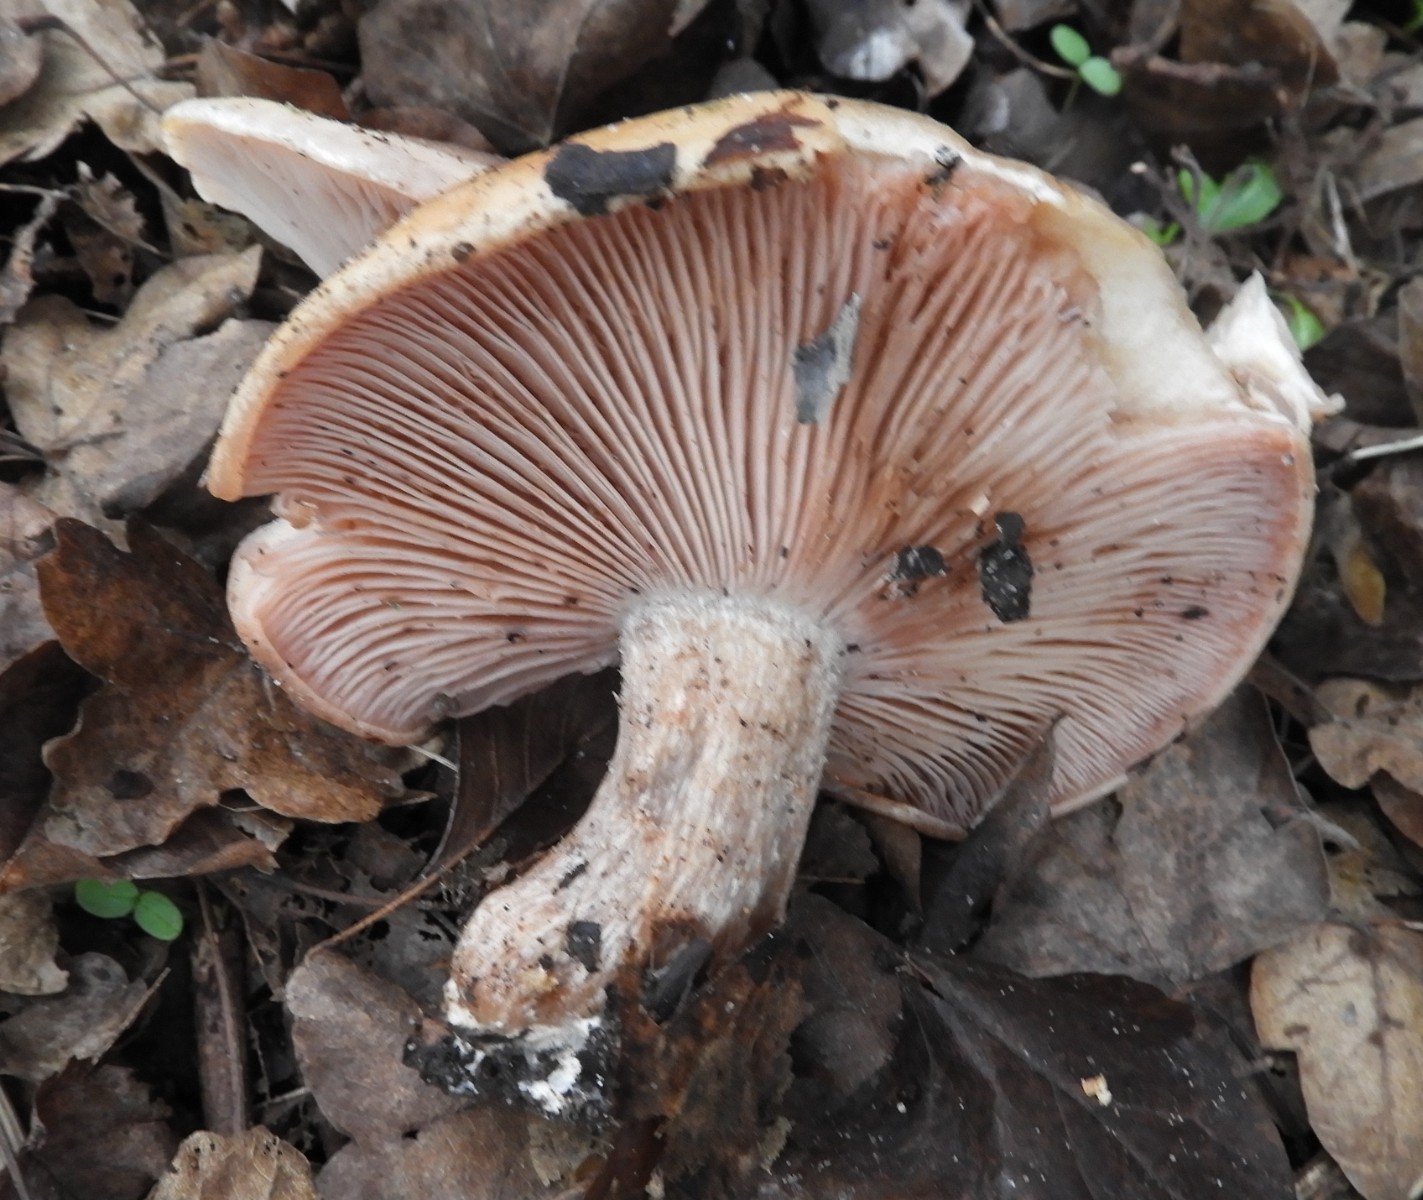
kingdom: Fungi
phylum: Basidiomycota
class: Agaricomycetes
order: Agaricales
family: Tricholomataceae
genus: Lepista
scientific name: Lepista personata
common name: bleg hekseringshat
